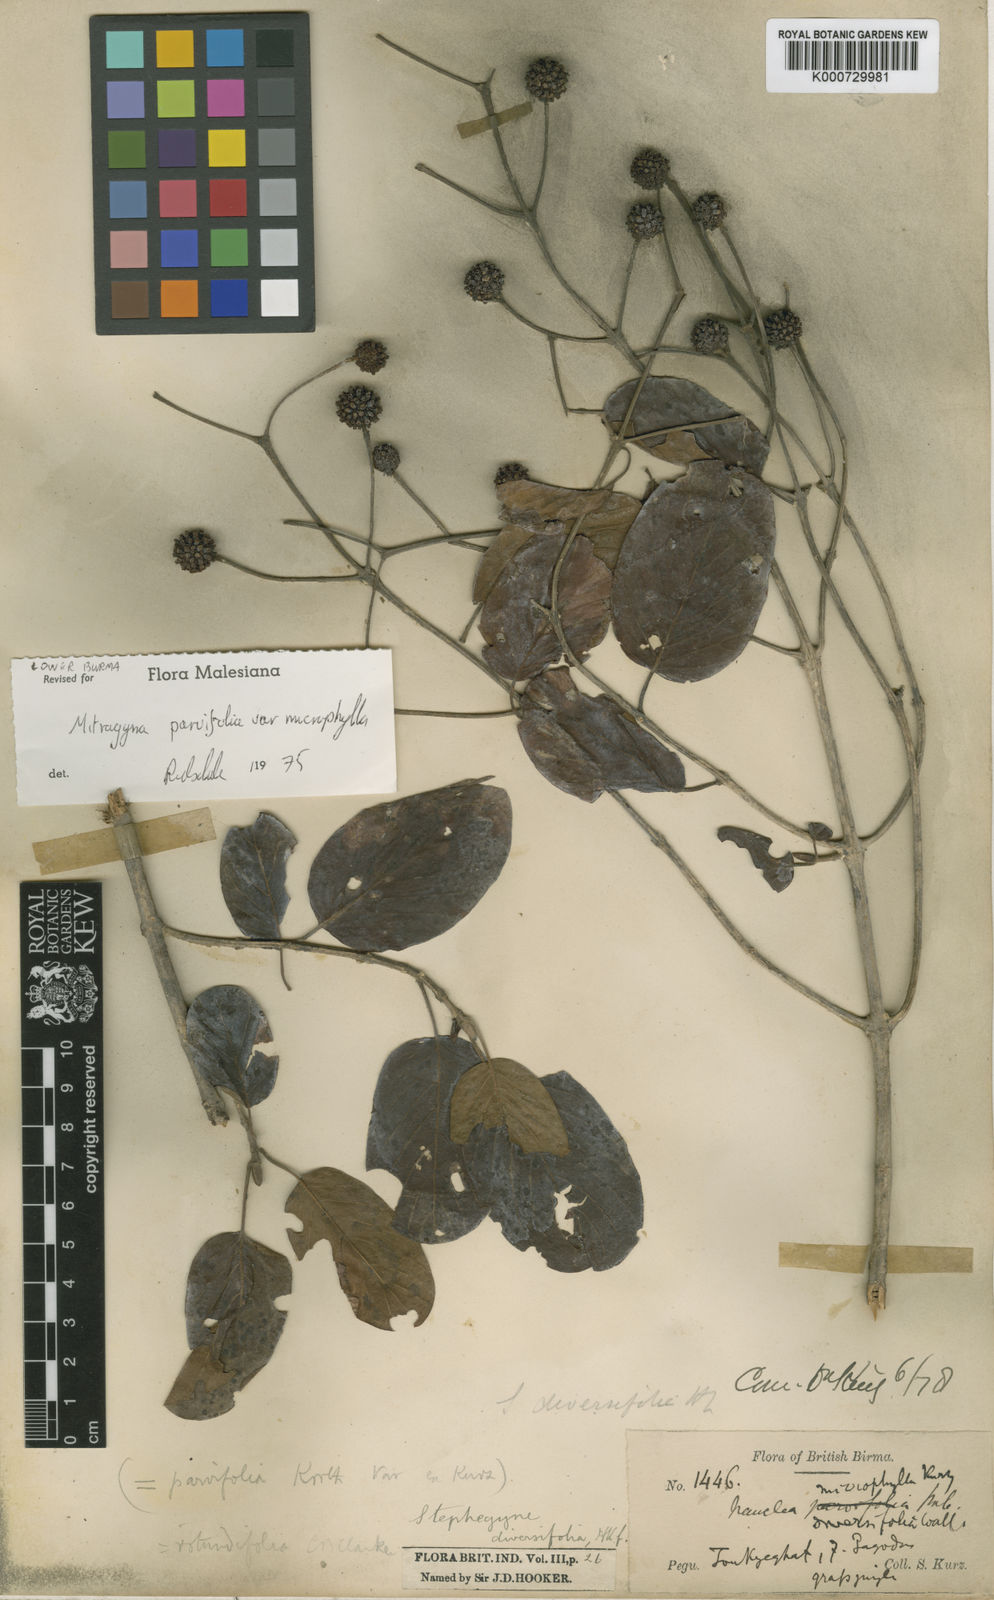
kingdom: Plantae
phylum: Tracheophyta
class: Magnoliopsida
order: Gentianales
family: Rubiaceae
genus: Mitragyna
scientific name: Mitragyna parvifolia
